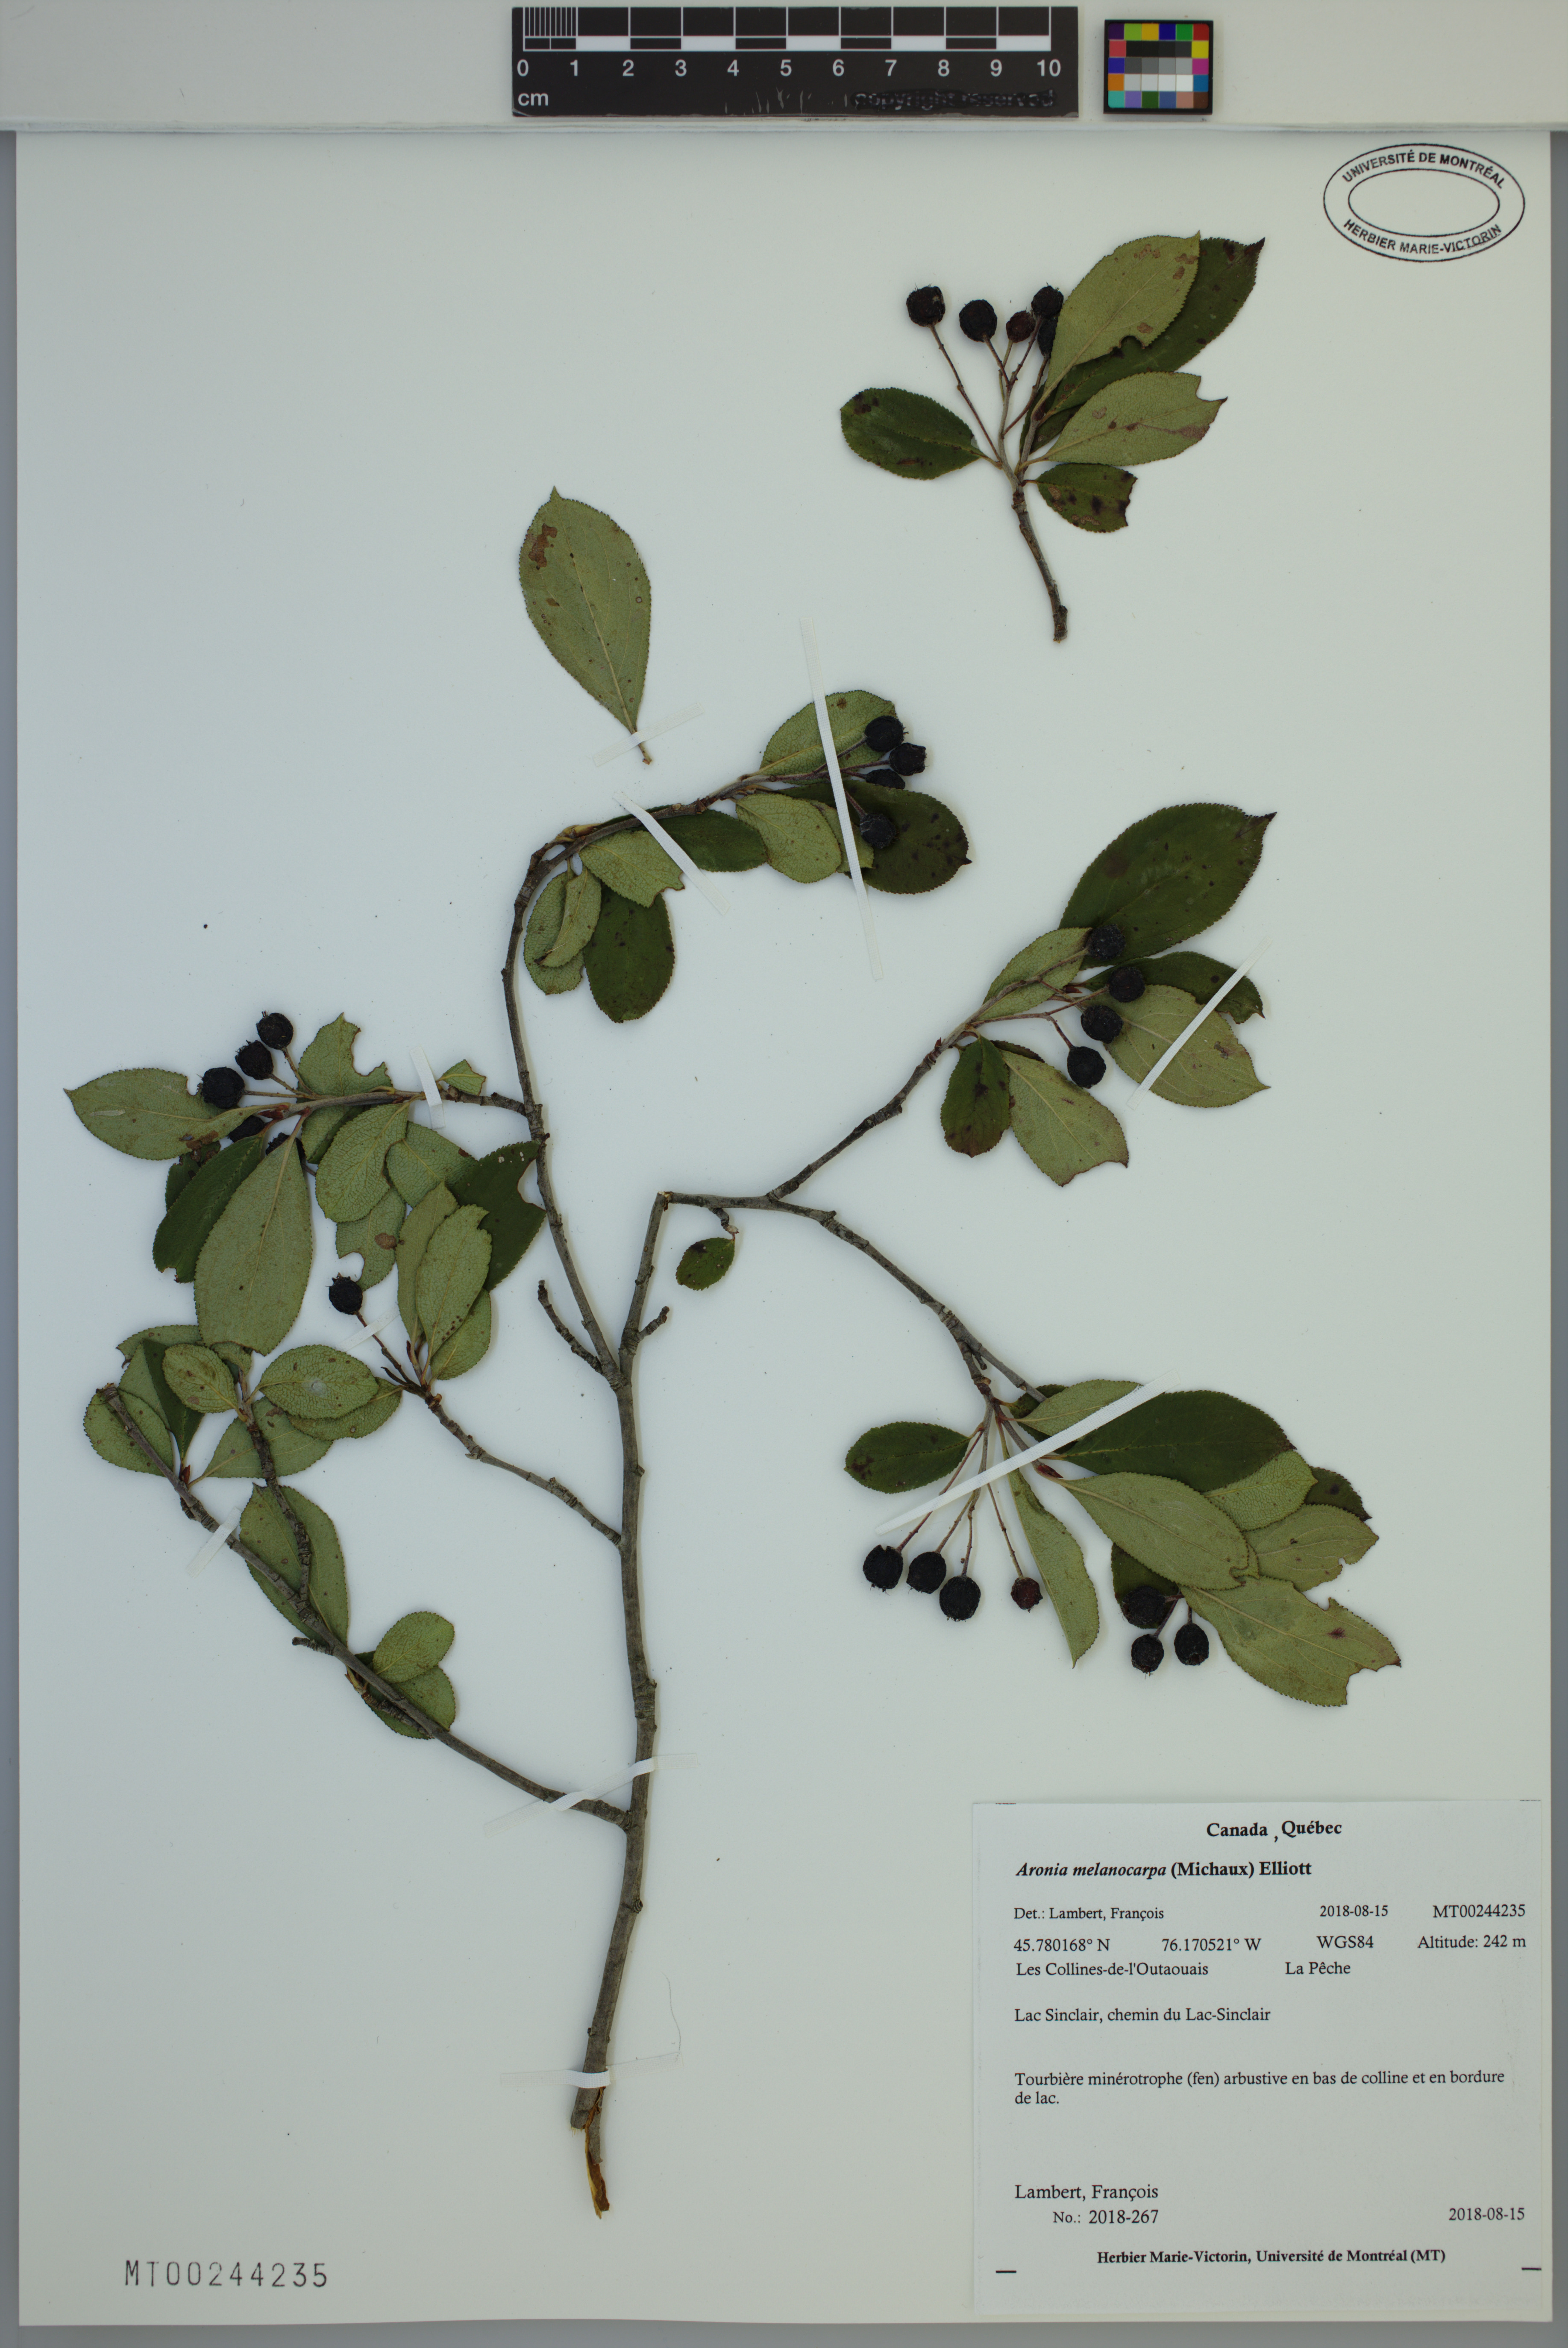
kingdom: Plantae
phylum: Tracheophyta
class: Magnoliopsida
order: Rosales
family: Rosaceae
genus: Aronia
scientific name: Aronia melanocarpa
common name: Black chokeberry
